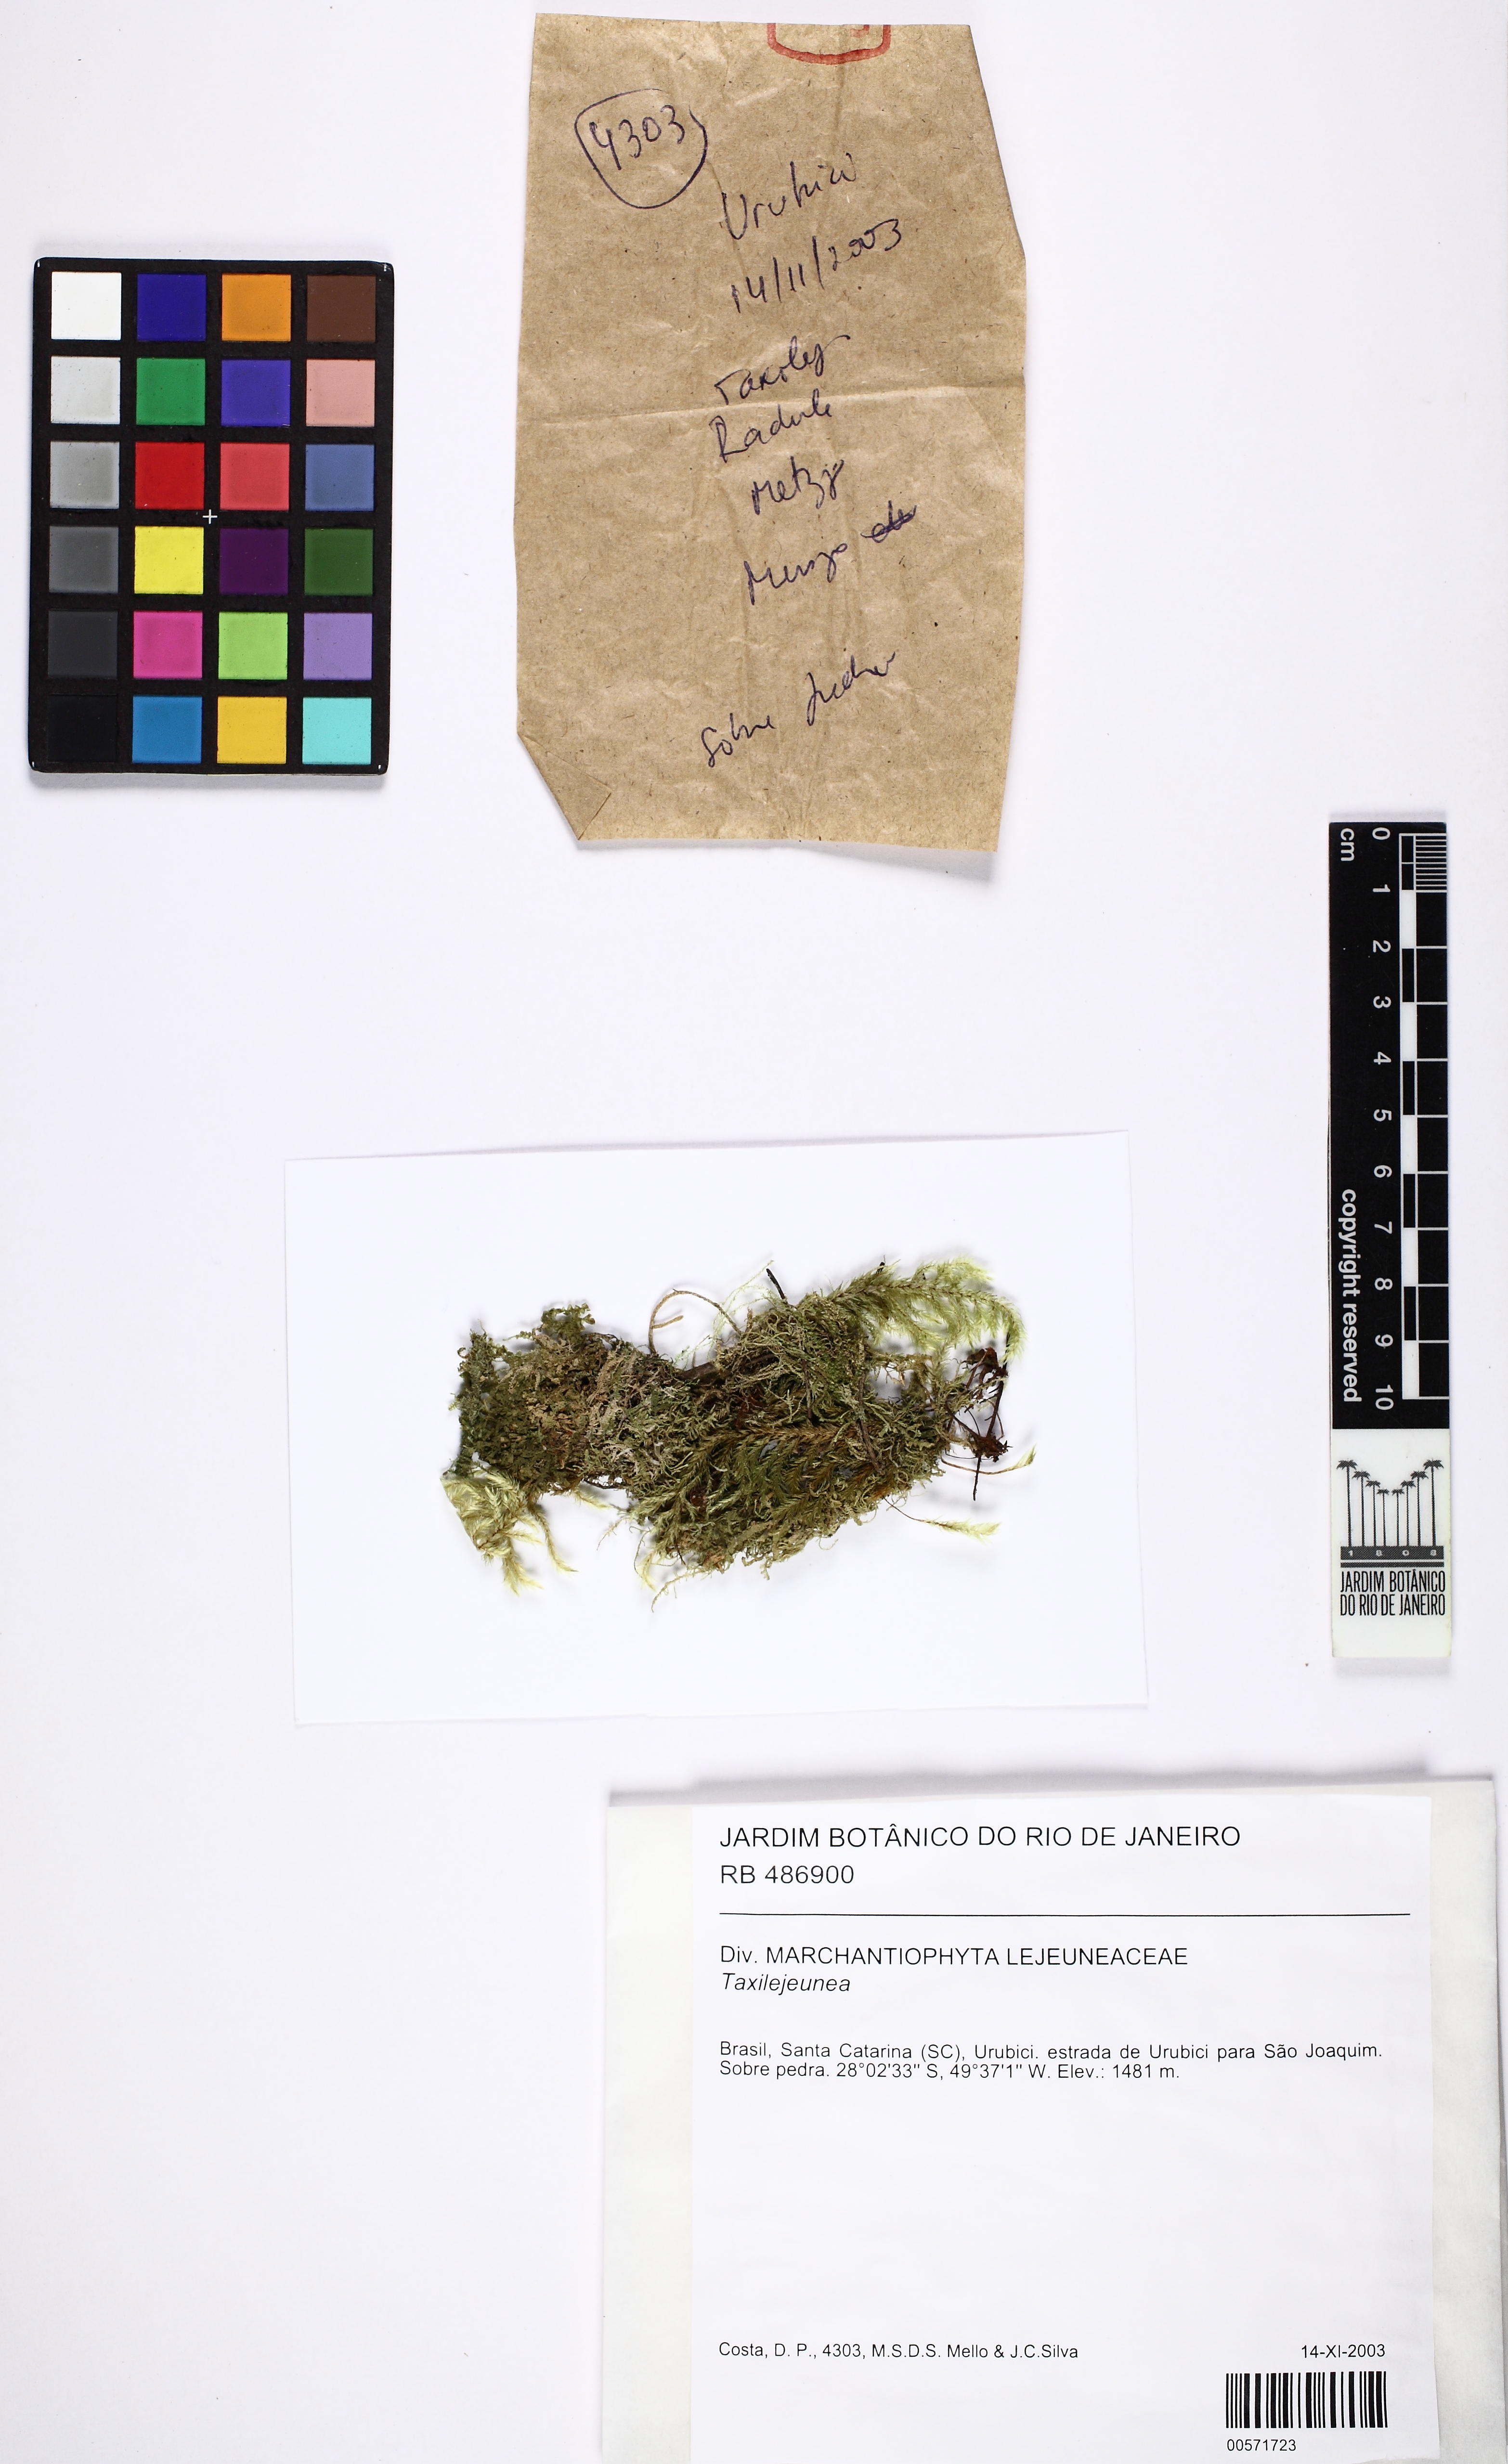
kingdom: Plantae
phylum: Marchantiophyta
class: Jungermanniopsida
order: Porellales
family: Lejeuneaceae
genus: Taxilejeunea
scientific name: Taxilejeunea
